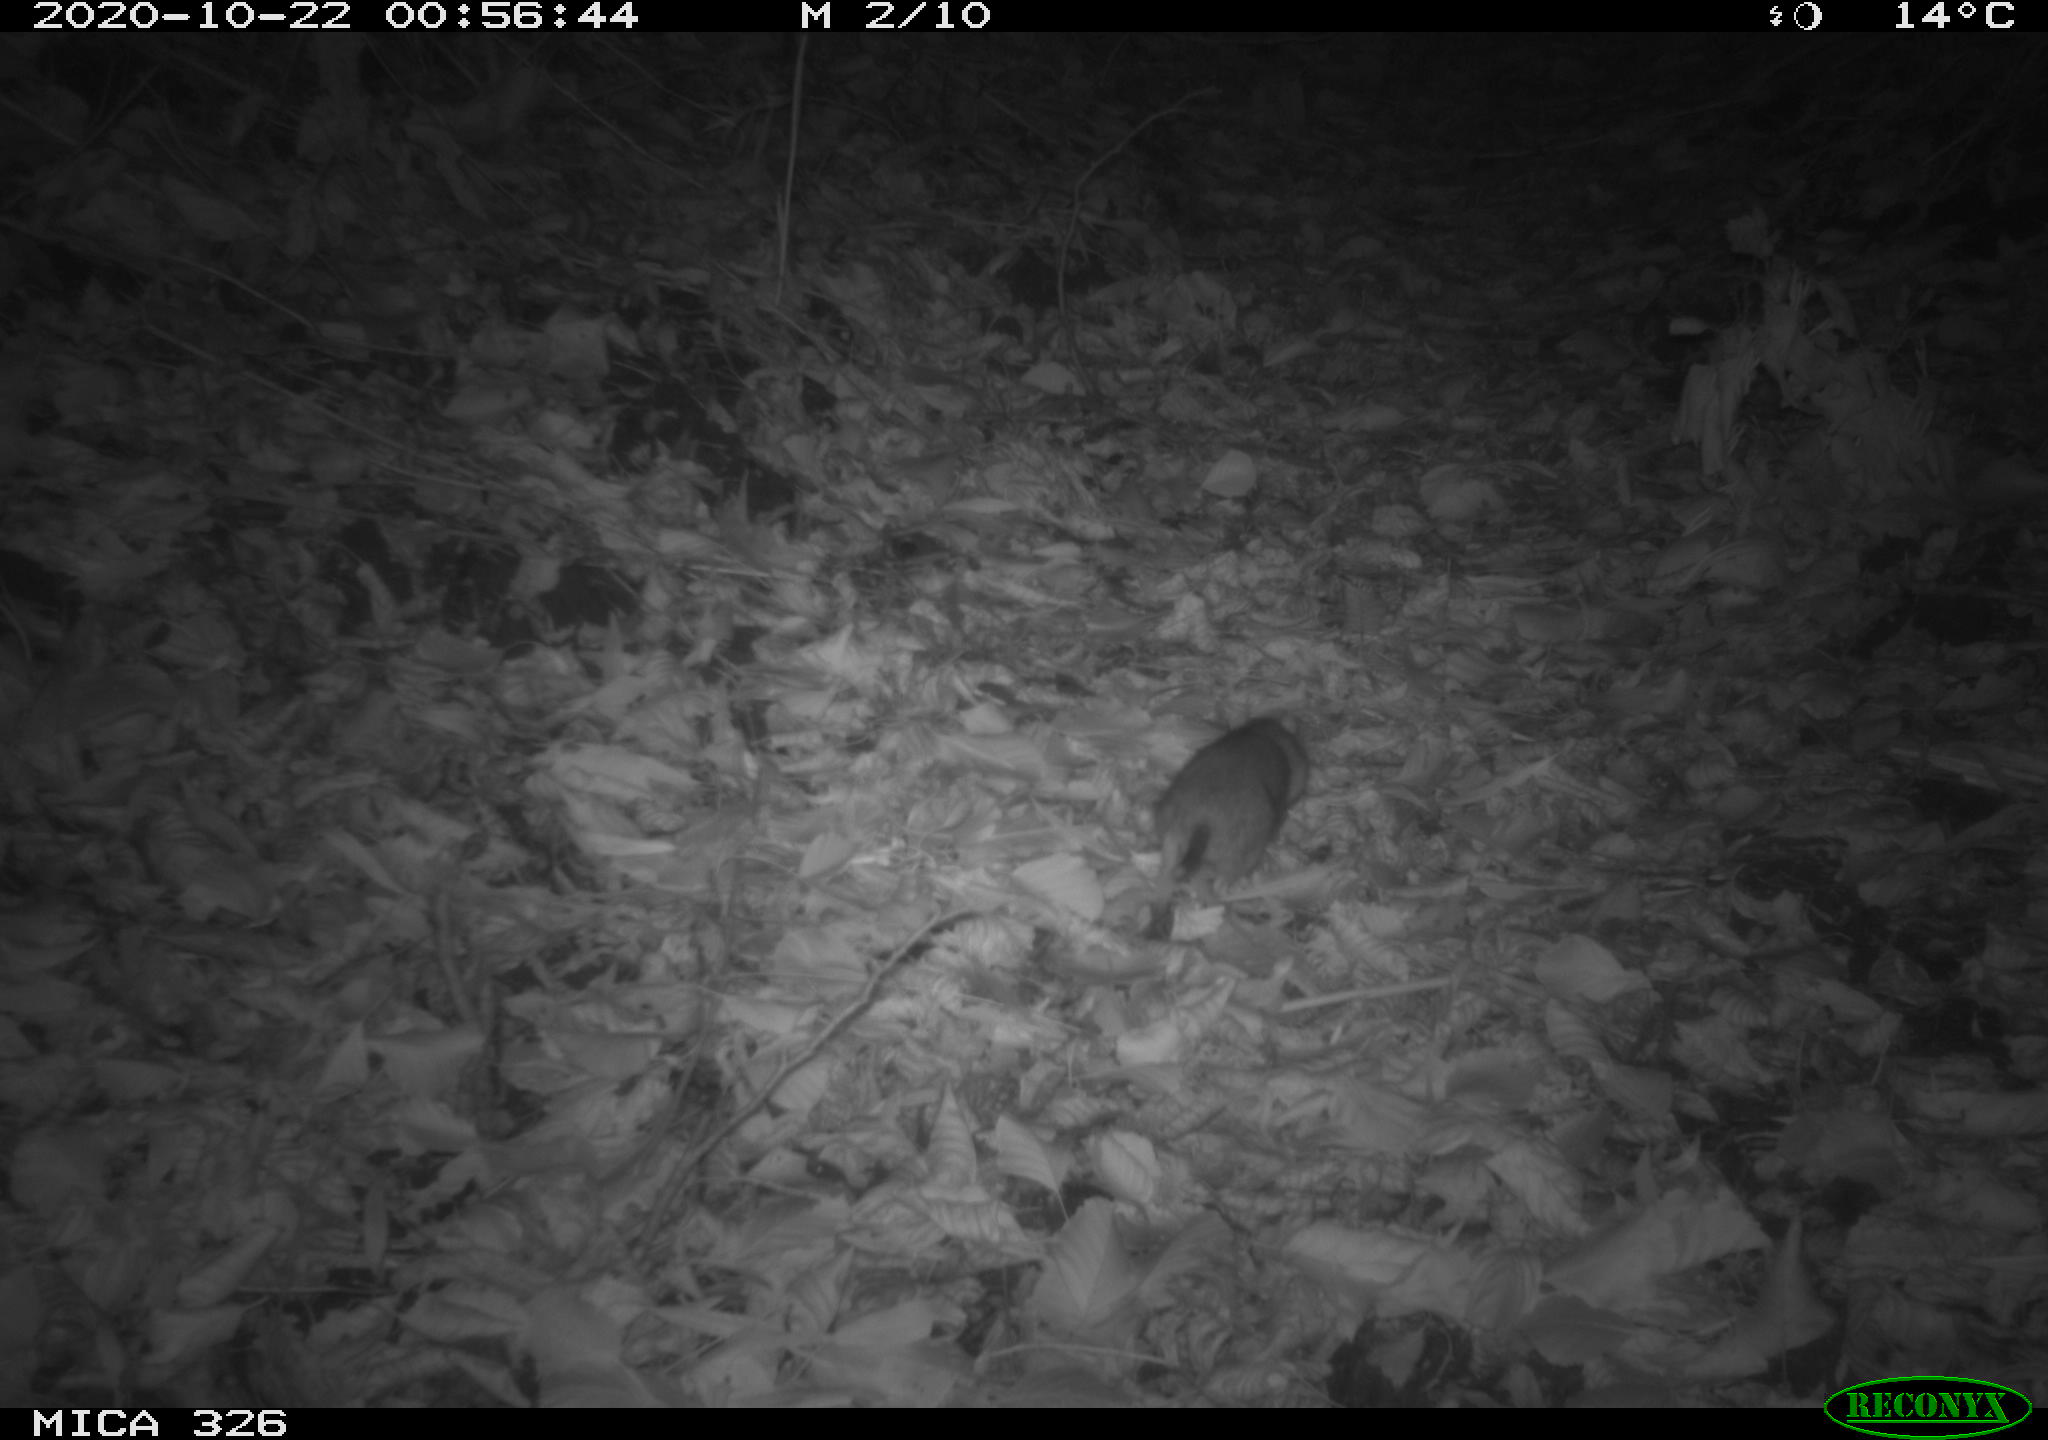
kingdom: Animalia
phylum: Chordata
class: Mammalia
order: Rodentia
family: Muridae
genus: Rattus
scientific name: Rattus norvegicus
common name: Brown rat
